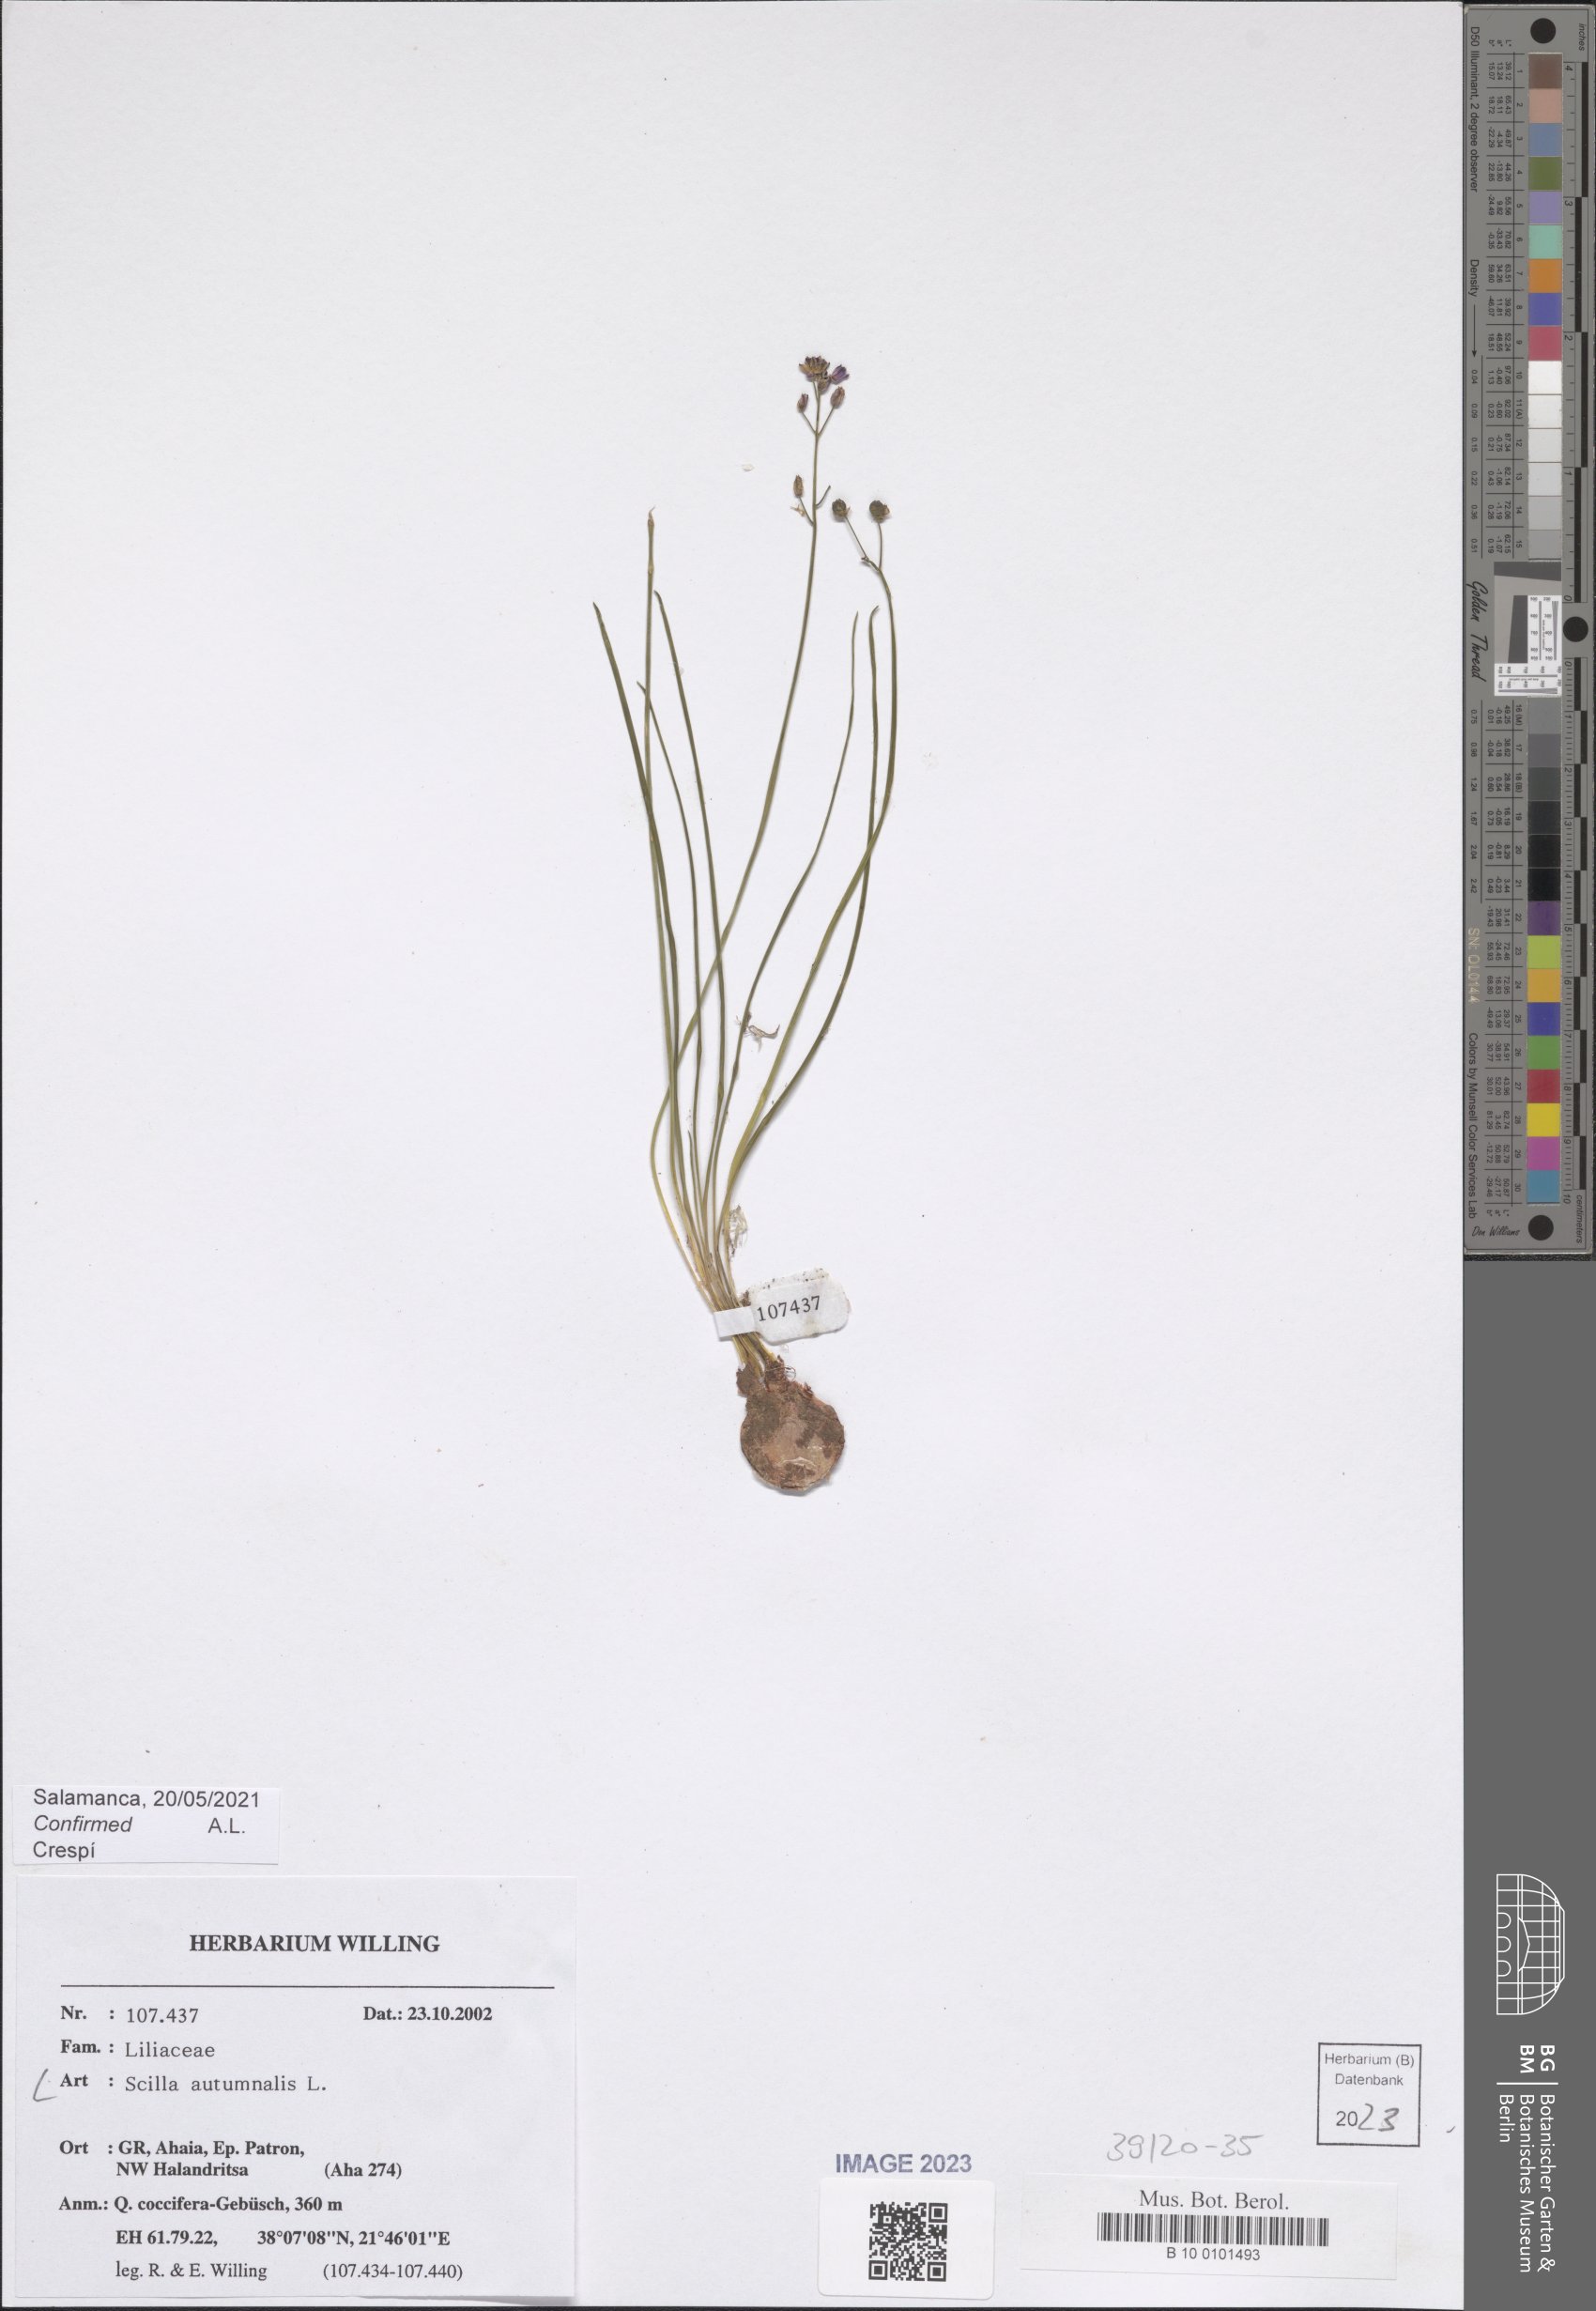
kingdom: Plantae
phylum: Tracheophyta
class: Liliopsida
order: Asparagales
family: Asparagaceae
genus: Prospero
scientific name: Prospero autumnale
